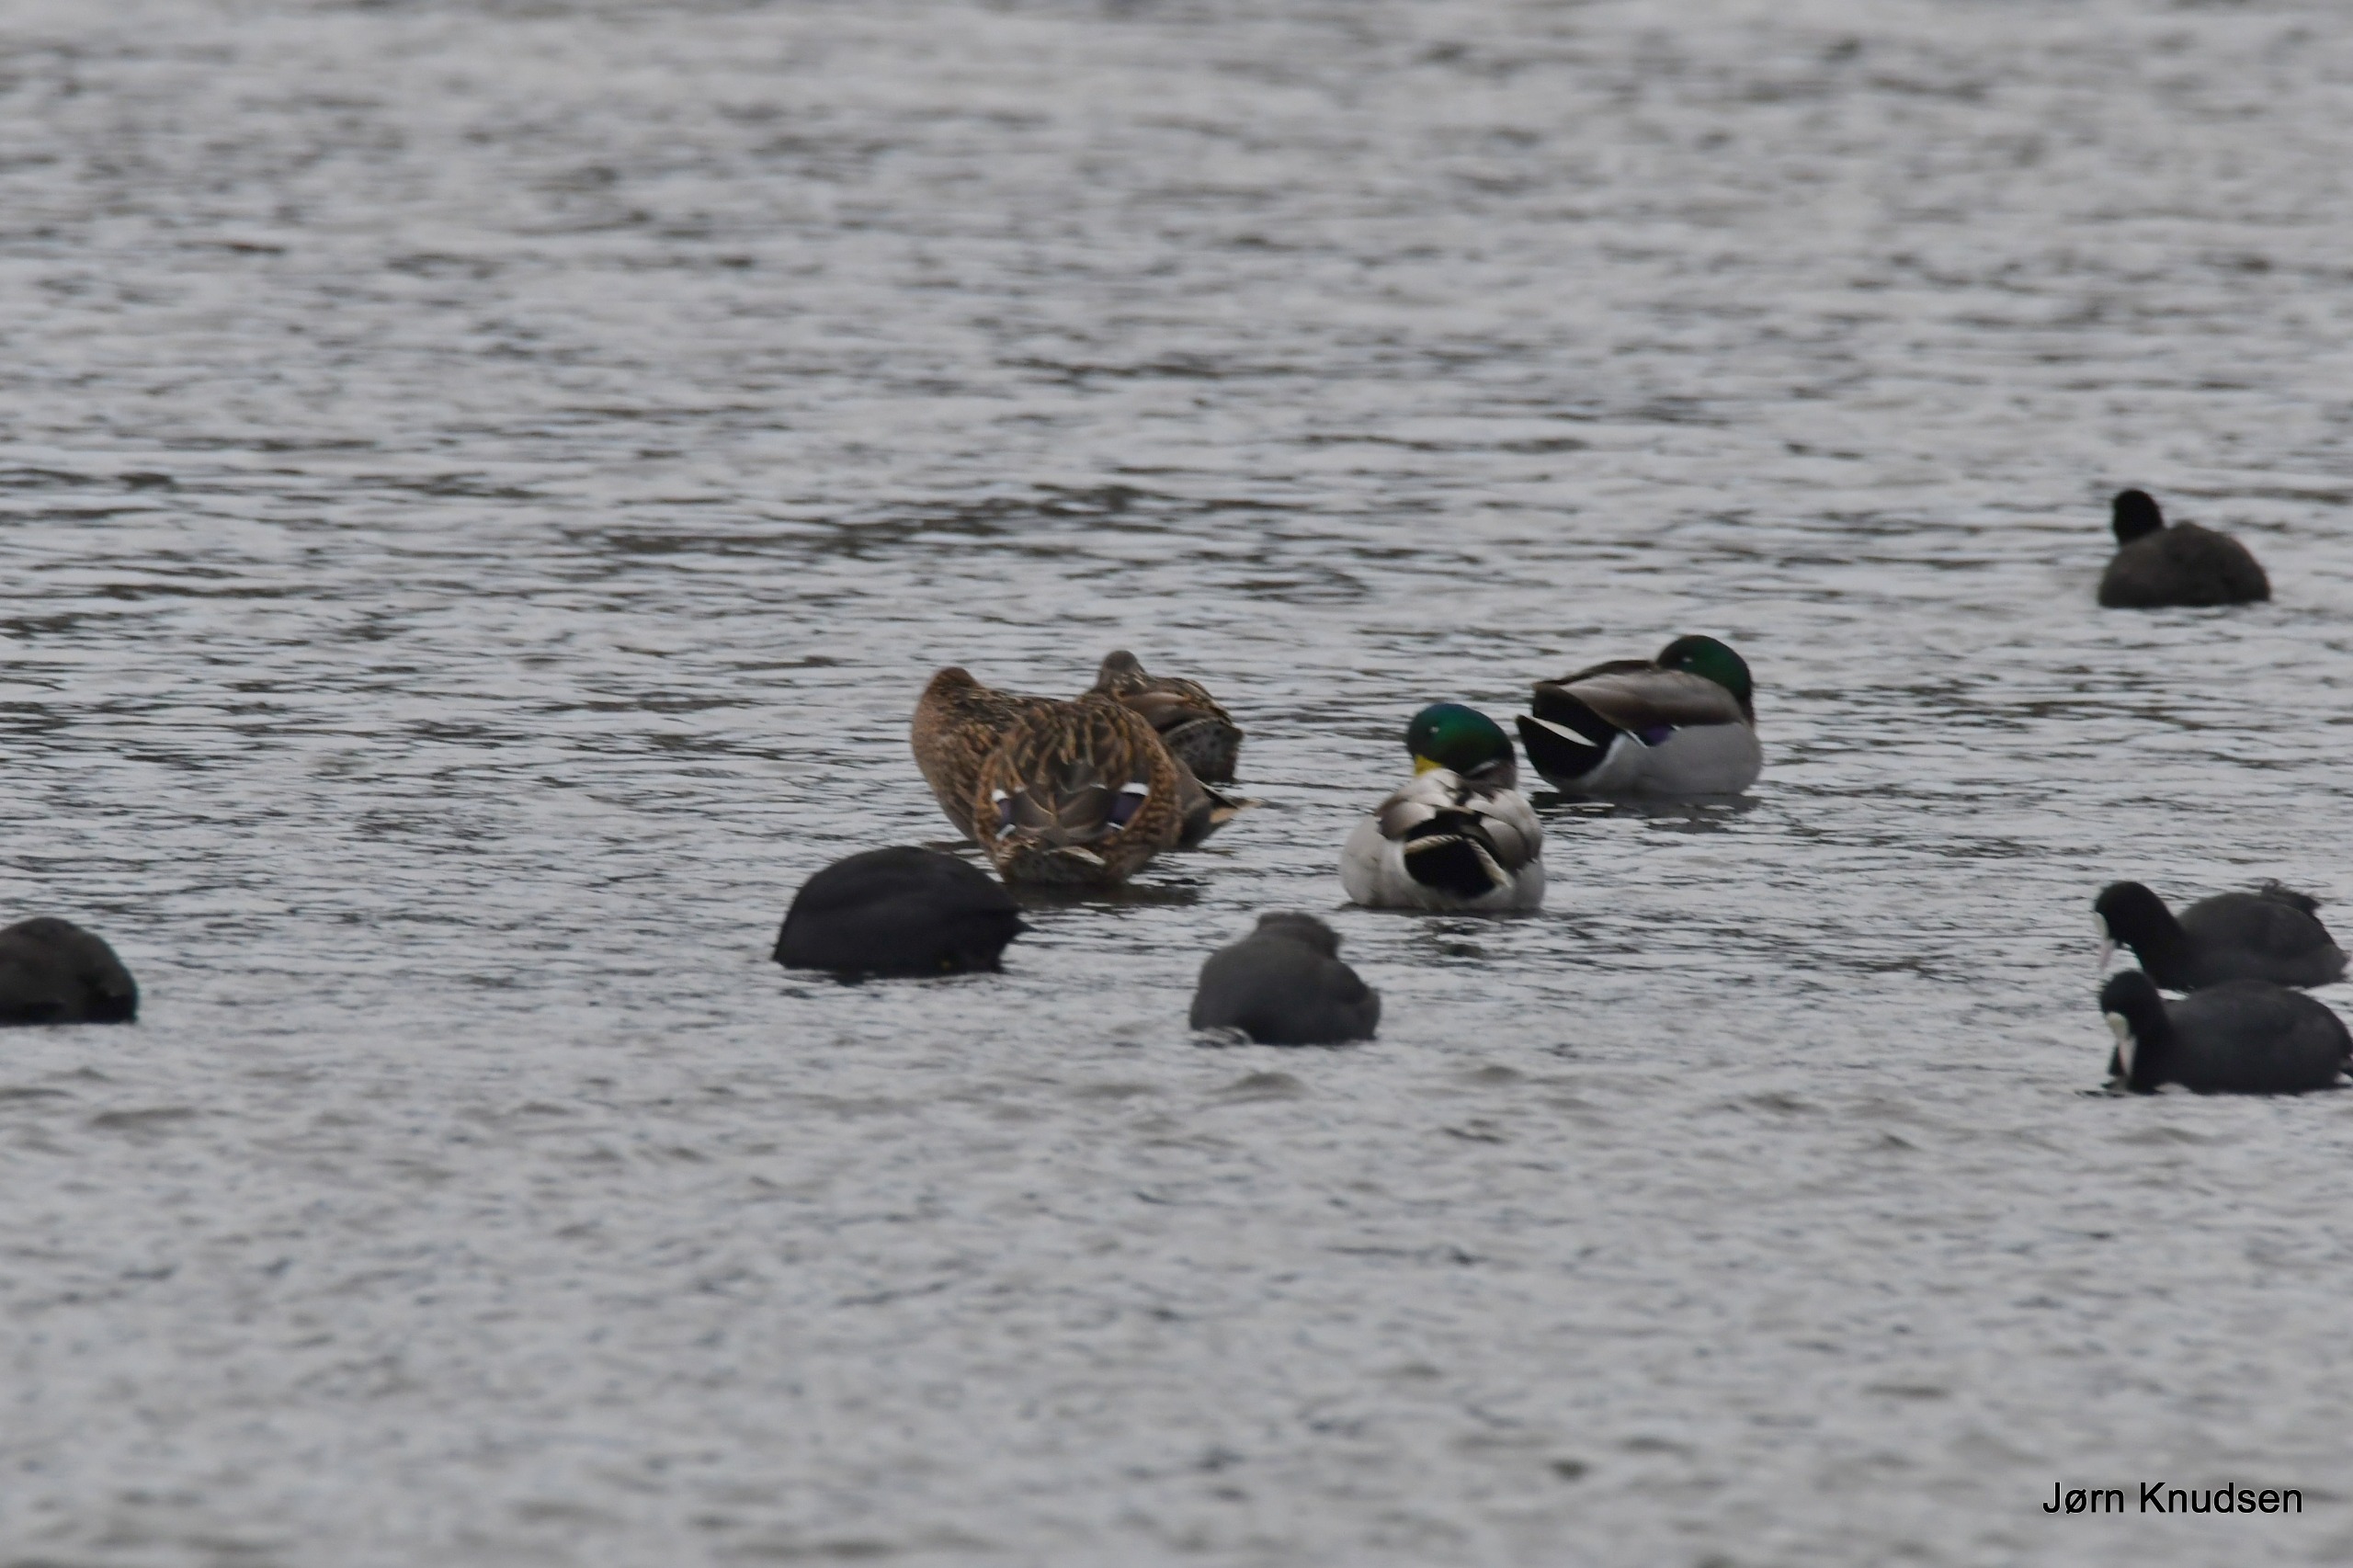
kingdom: Animalia
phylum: Chordata
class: Aves
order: Anseriformes
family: Anatidae
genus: Anas
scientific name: Anas platyrhynchos
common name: Gråand
